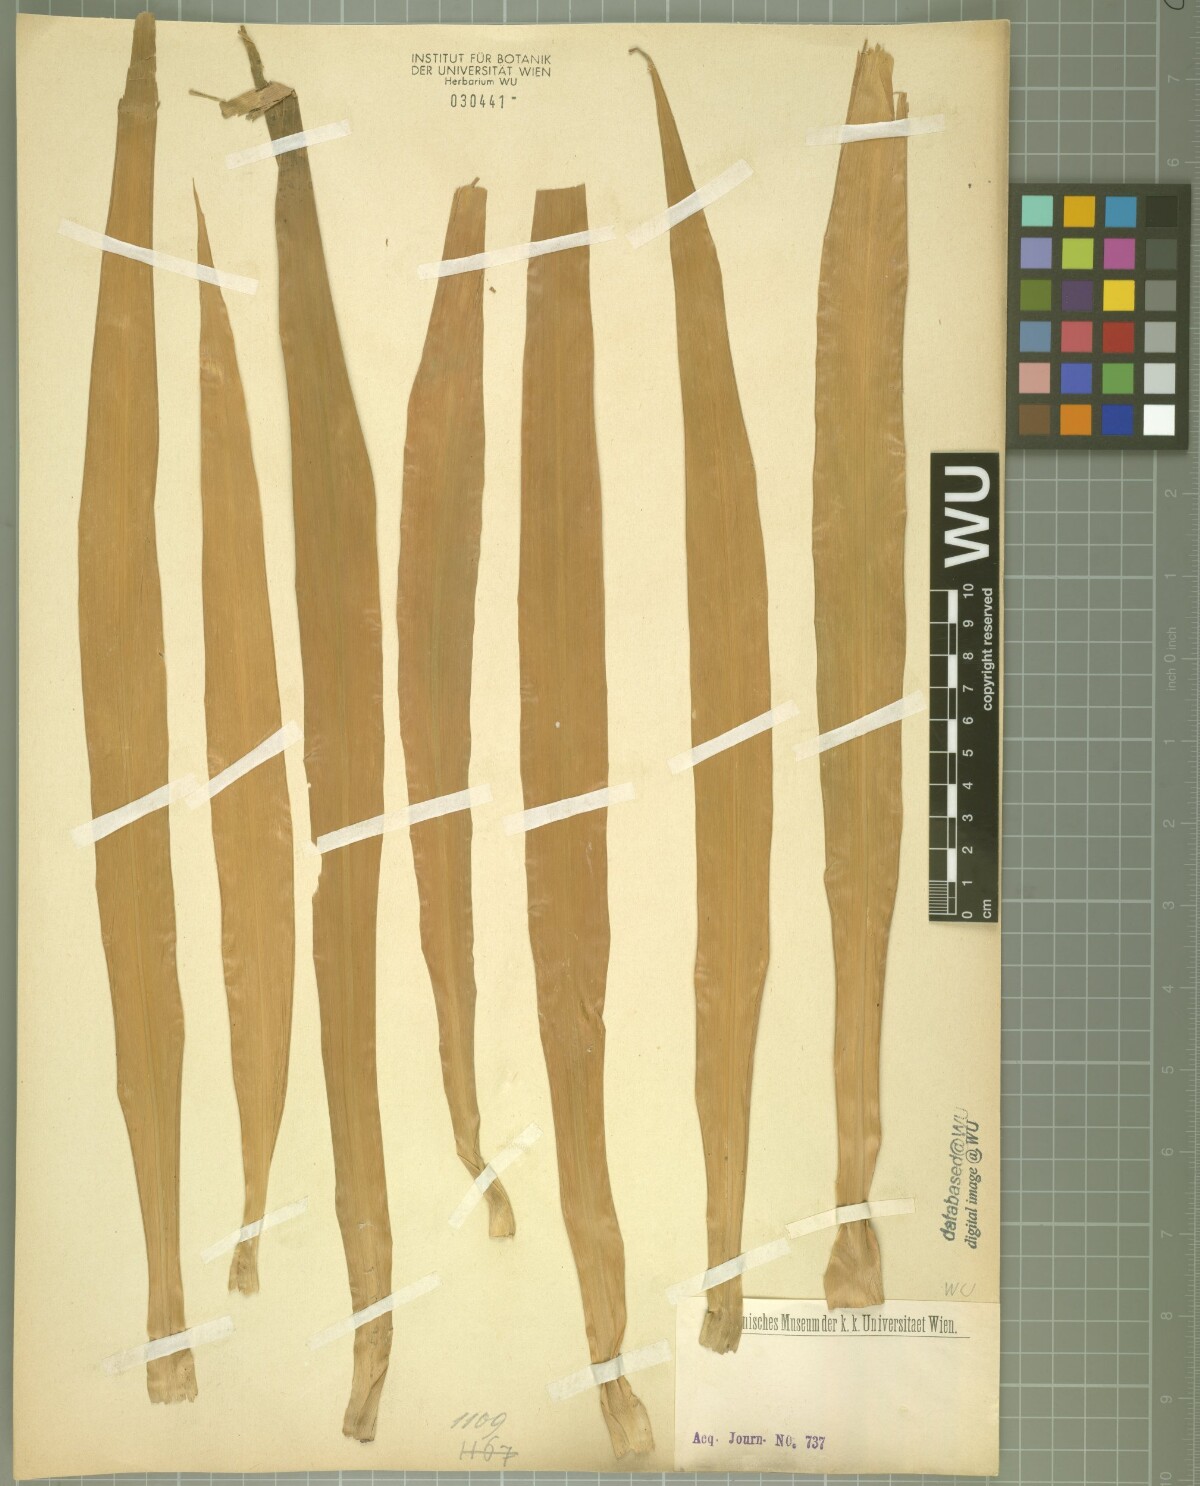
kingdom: Plantae
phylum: Tracheophyta
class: Liliopsida
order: Asparagales
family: Asparagaceae
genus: Dracaena
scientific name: Dracaena ensifolia
